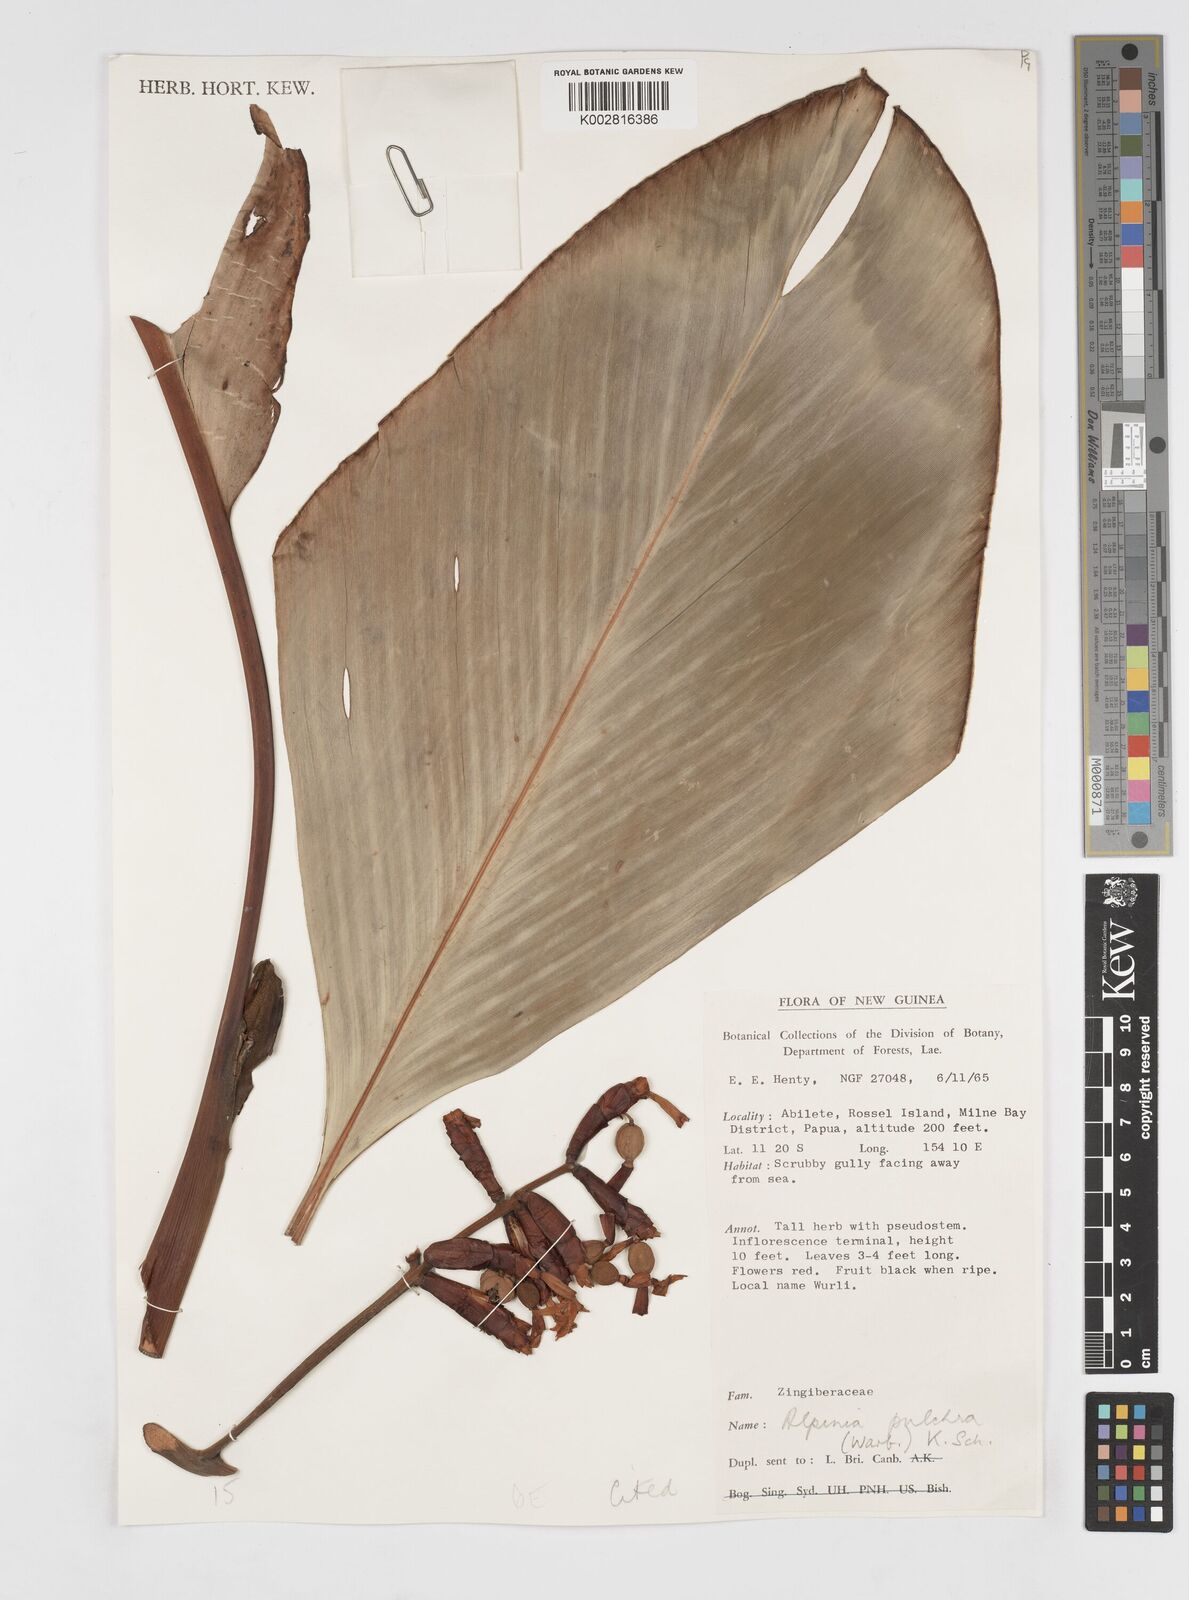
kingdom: Plantae
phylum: Tracheophyta
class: Liliopsida
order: Zingiberales
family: Zingiberaceae
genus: Alpinia
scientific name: Alpinia pulchra
